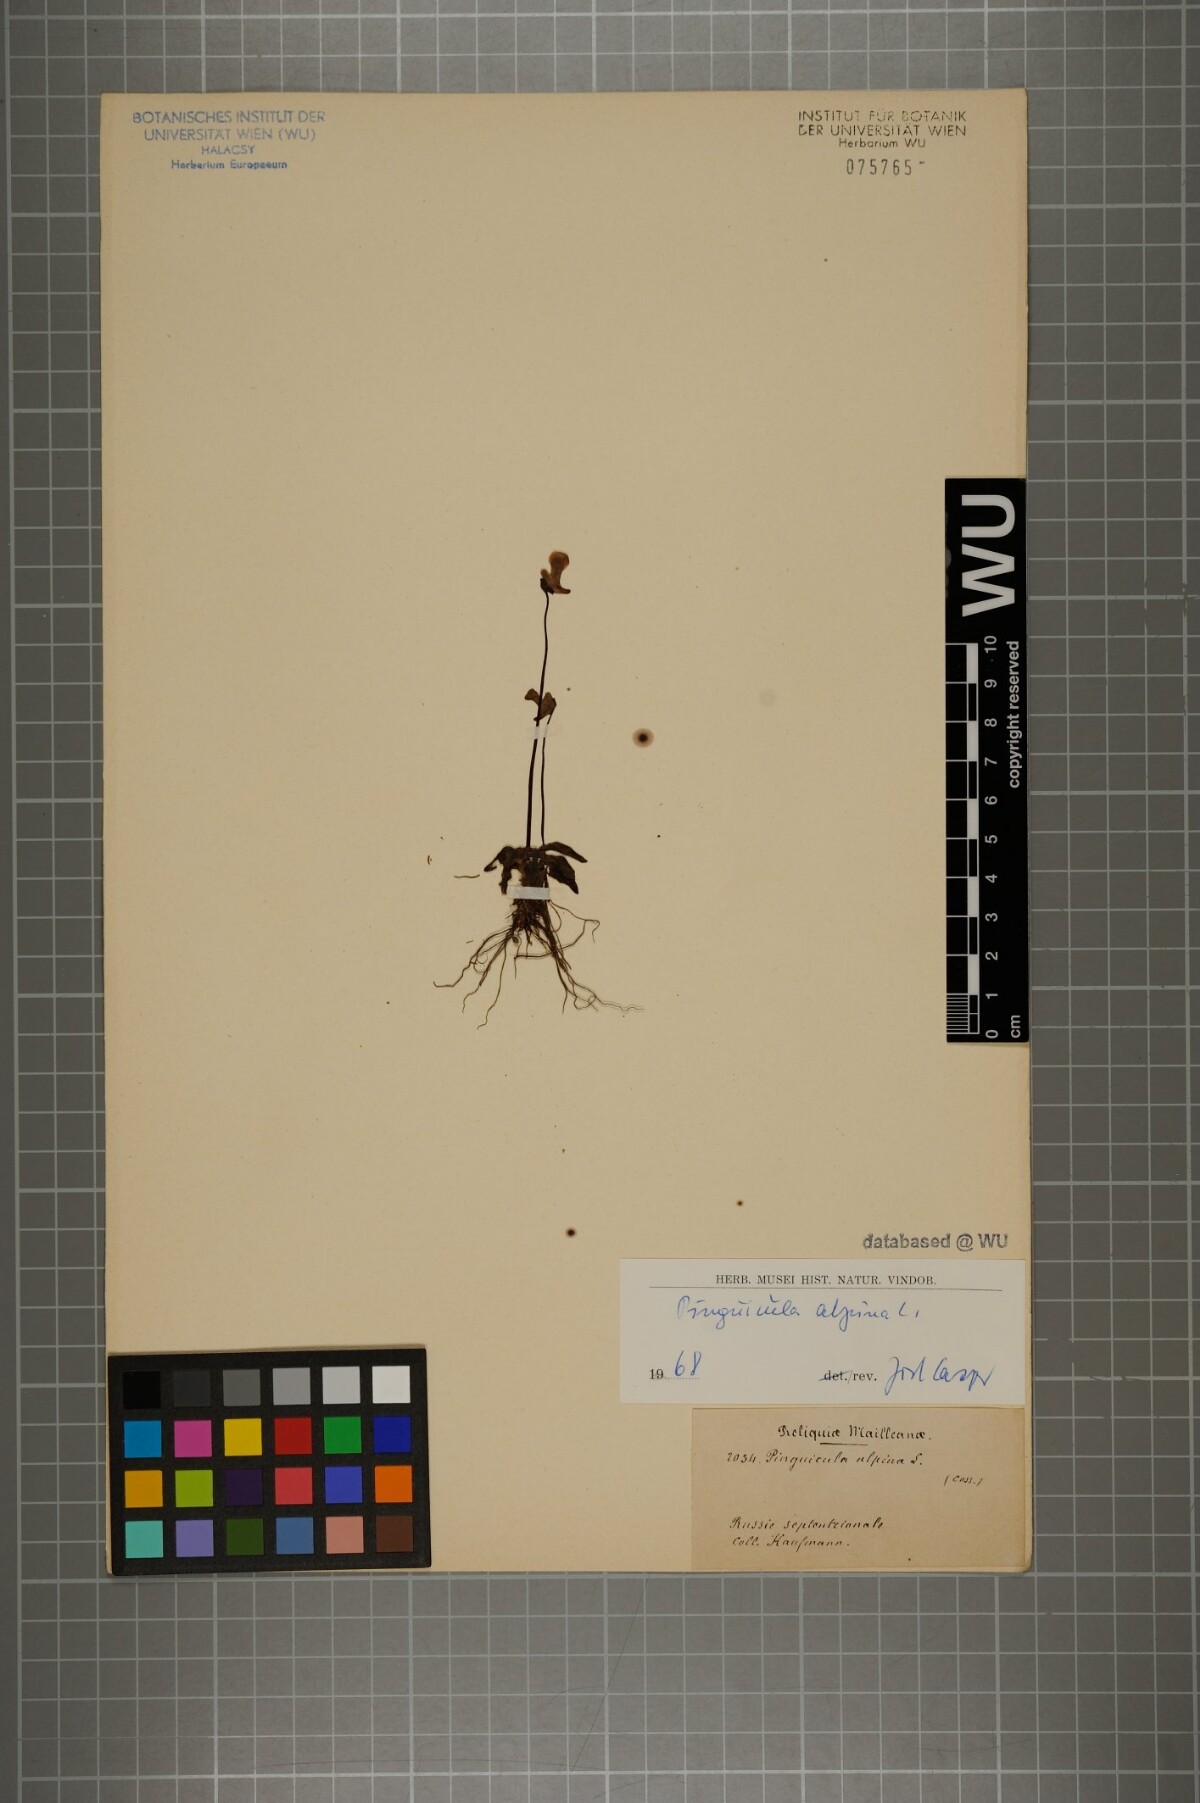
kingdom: Plantae
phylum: Tracheophyta
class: Magnoliopsida
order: Lamiales
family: Lentibulariaceae
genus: Pinguicula
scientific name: Pinguicula alpina
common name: Alpine butterwort
